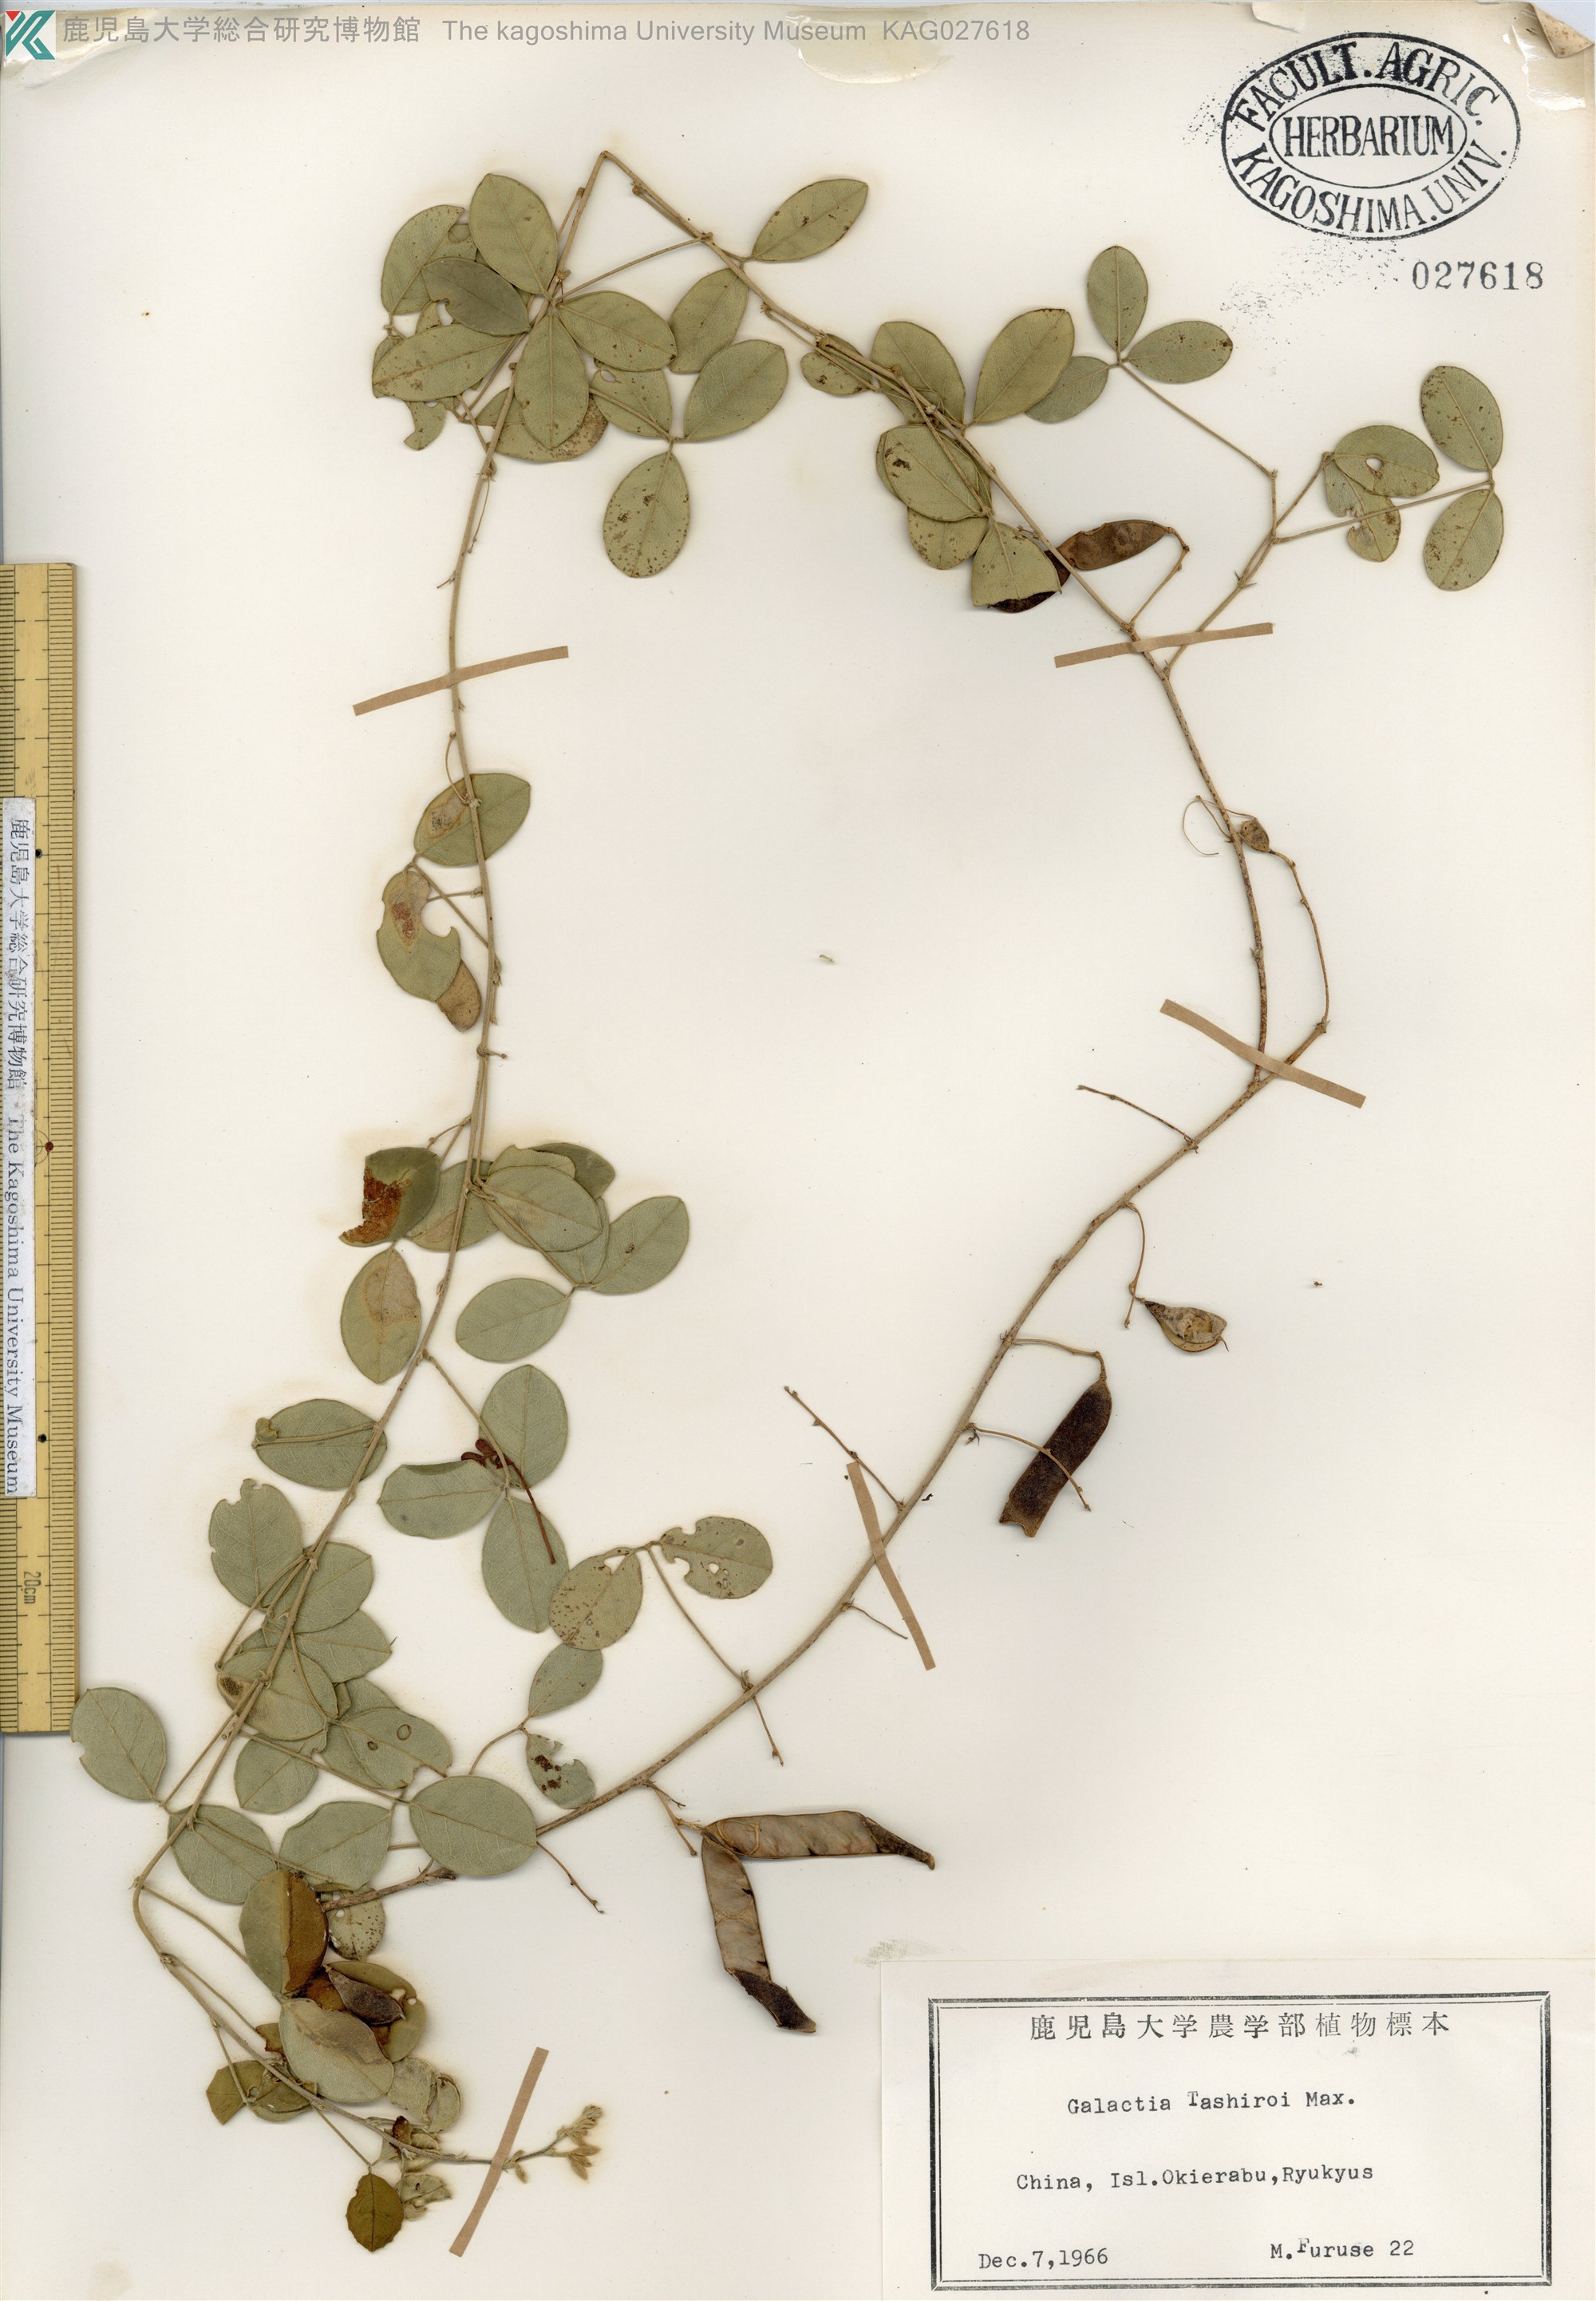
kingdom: Plantae
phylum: Tracheophyta
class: Magnoliopsida
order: Fabales
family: Fabaceae
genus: Galactia
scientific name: Galactia tashiroi
